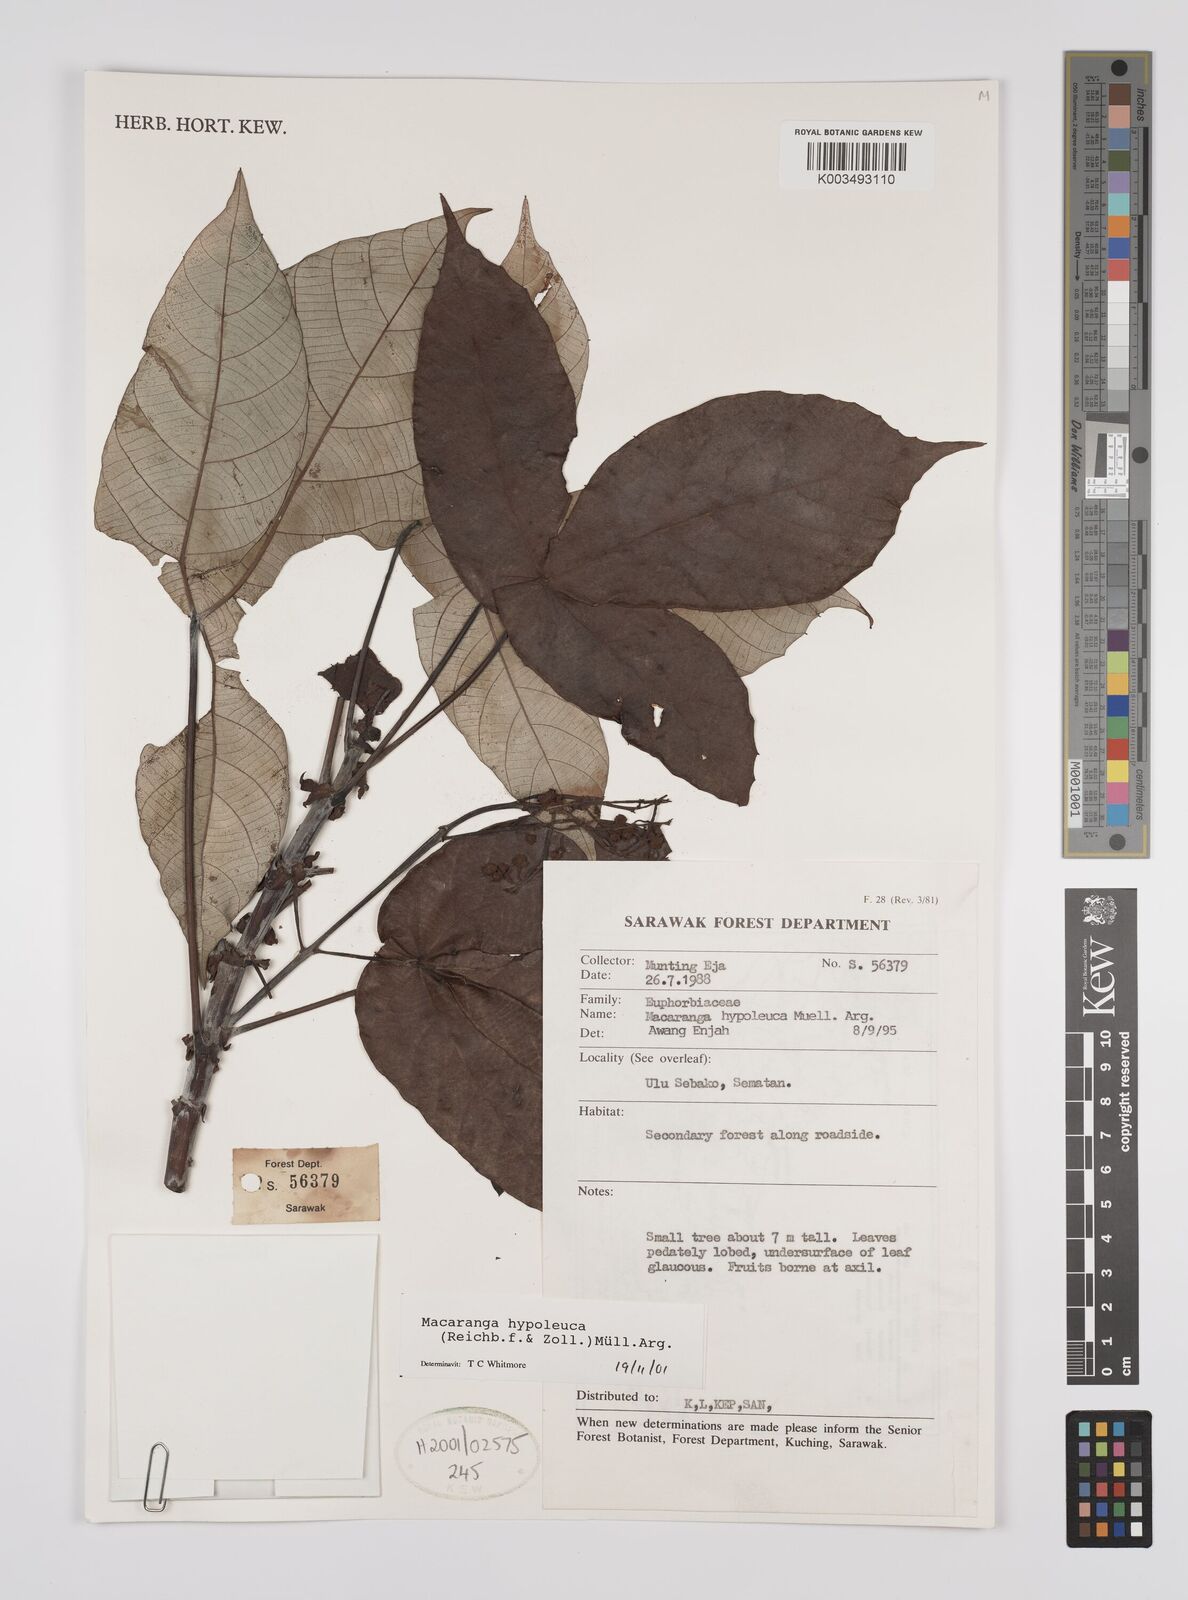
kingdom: Plantae
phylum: Tracheophyta
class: Magnoliopsida
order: Malpighiales
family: Euphorbiaceae
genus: Macaranga
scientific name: Macaranga hypoleuca
